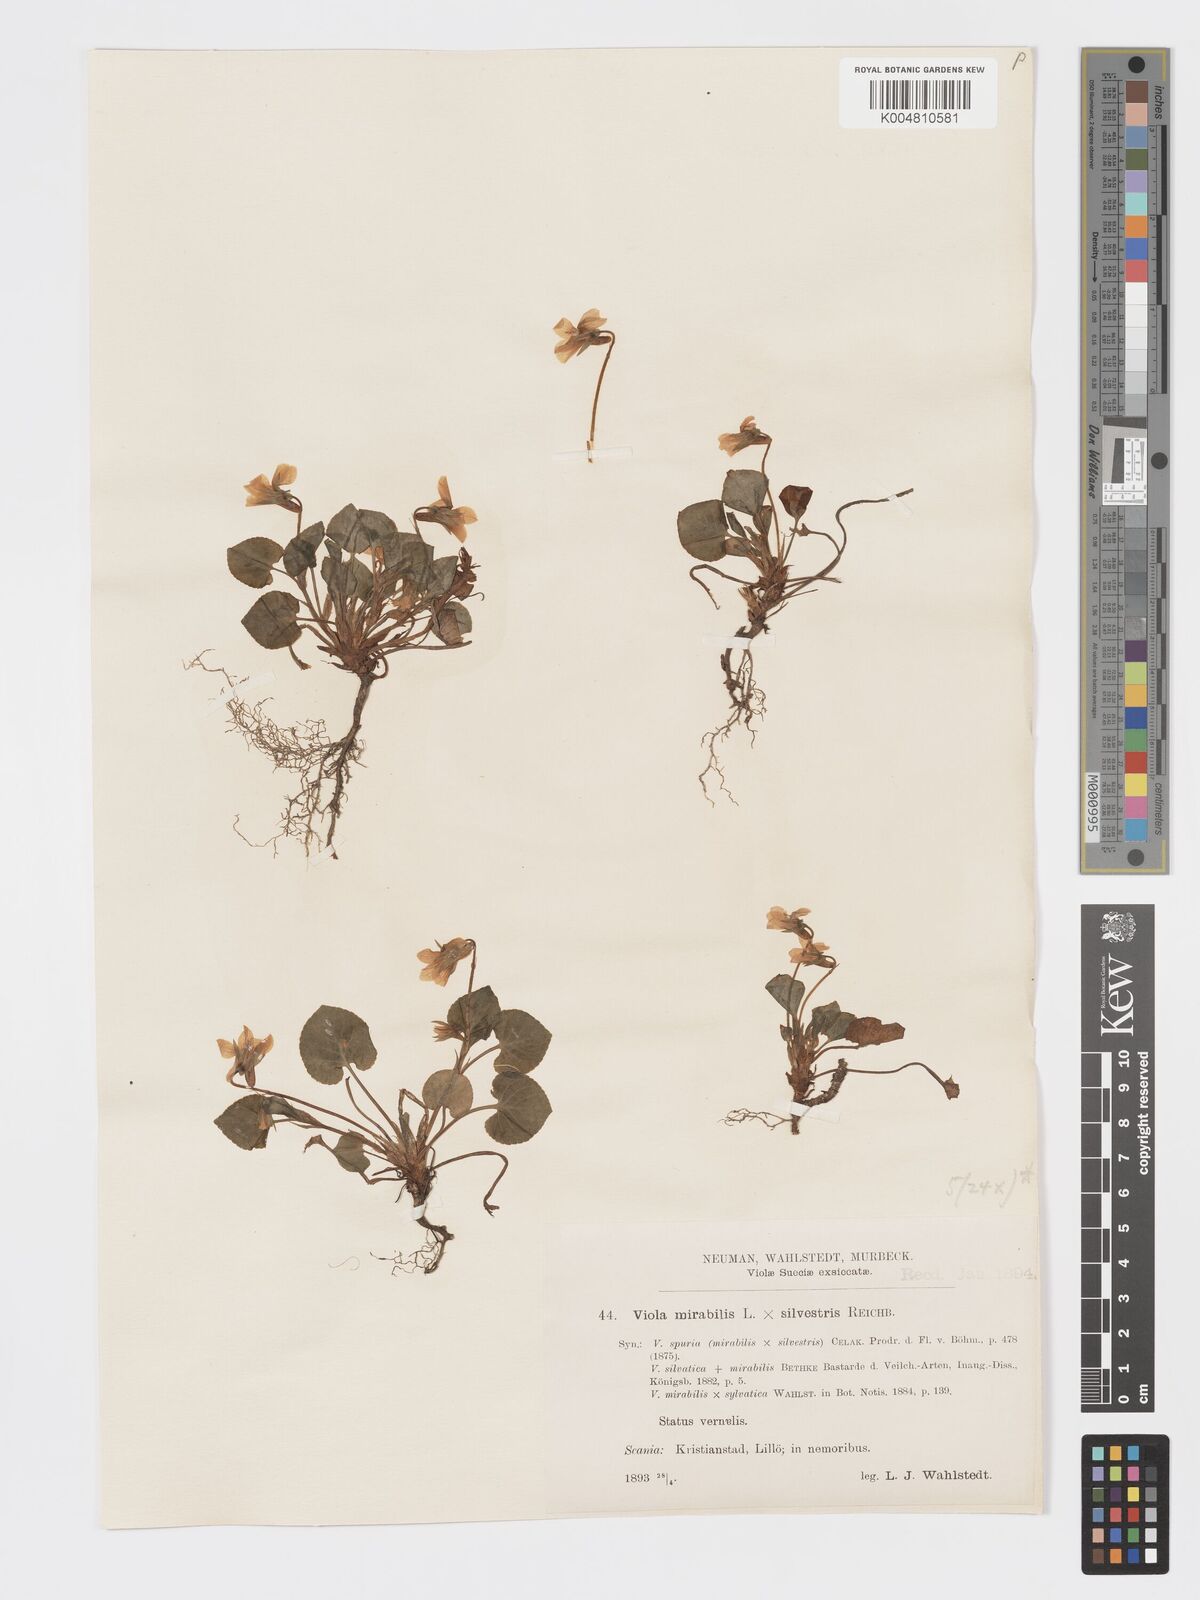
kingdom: Plantae
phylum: Tracheophyta
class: Magnoliopsida
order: Malpighiales
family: Violaceae
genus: Viola
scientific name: Viola mirabilis
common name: Wonder violet
